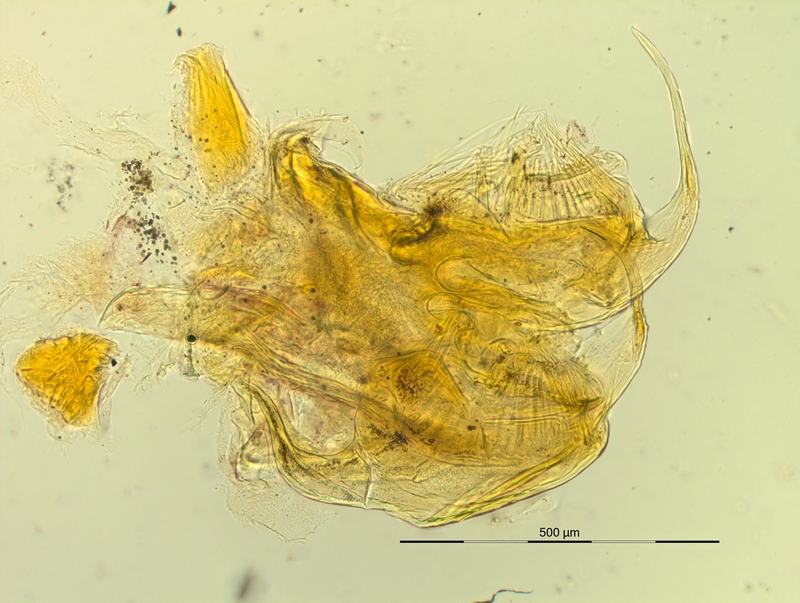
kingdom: Animalia
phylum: Arthropoda
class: Diplopoda
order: Chordeumatida
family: Craspedosomatidae
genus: Pyrgocyphosoma
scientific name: Pyrgocyphosoma ligusticum
